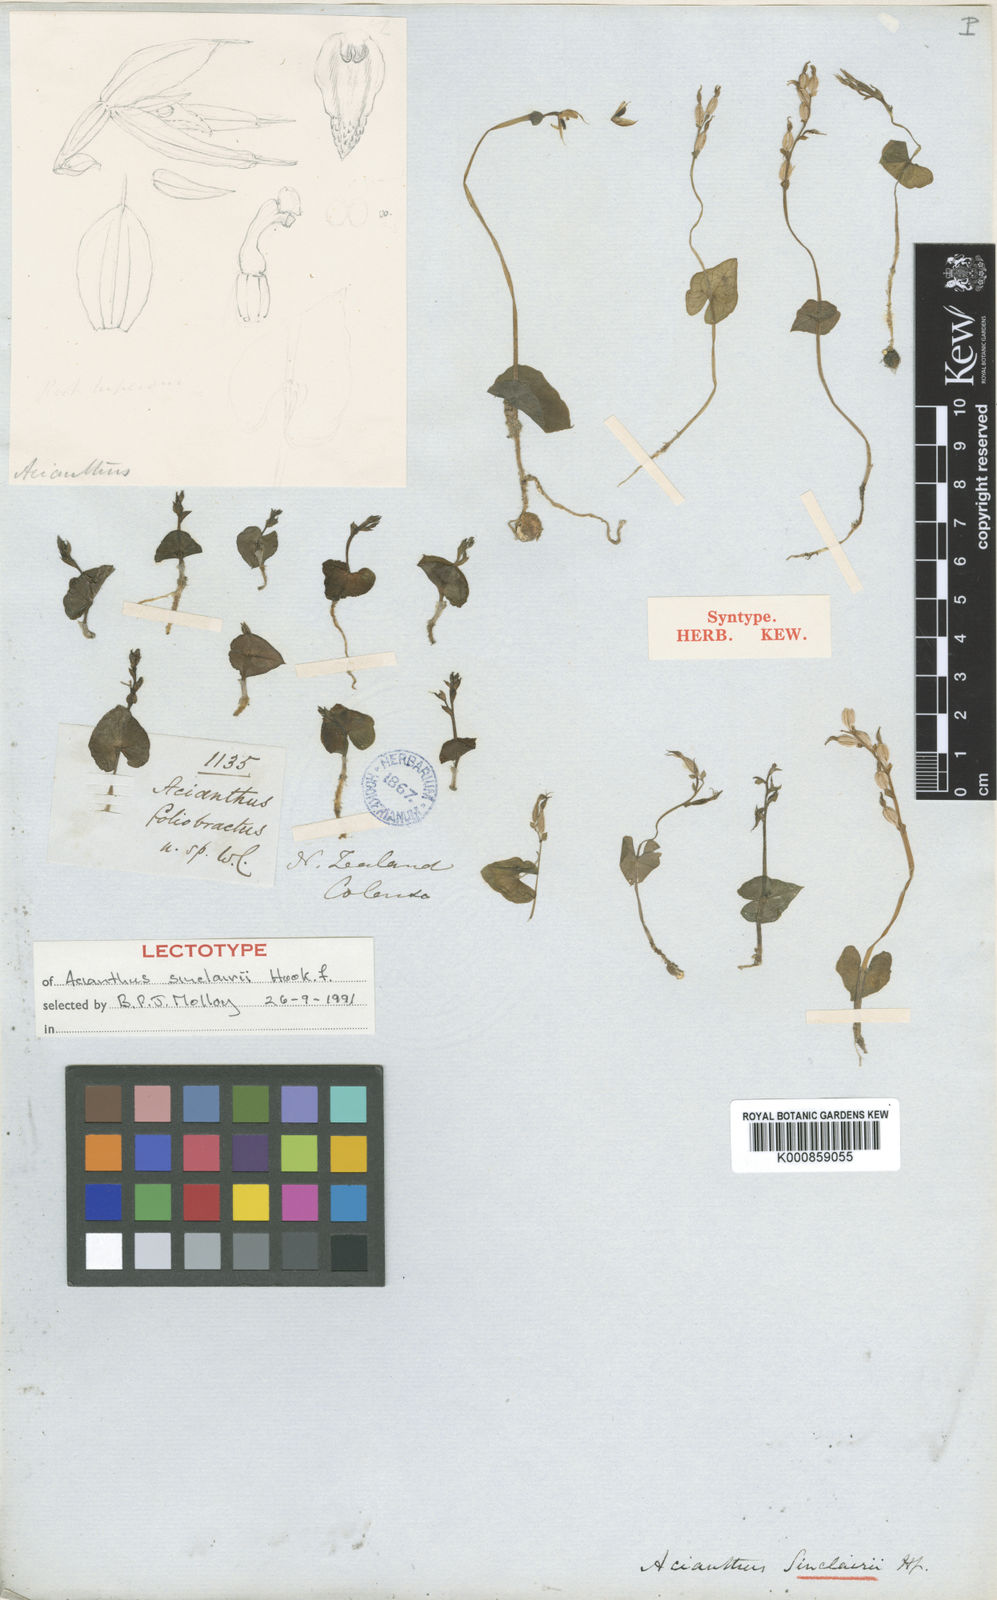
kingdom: Plantae
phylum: Tracheophyta
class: Liliopsida
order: Asparagales
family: Orchidaceae
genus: Acianthus
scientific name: Acianthus sinclairii
